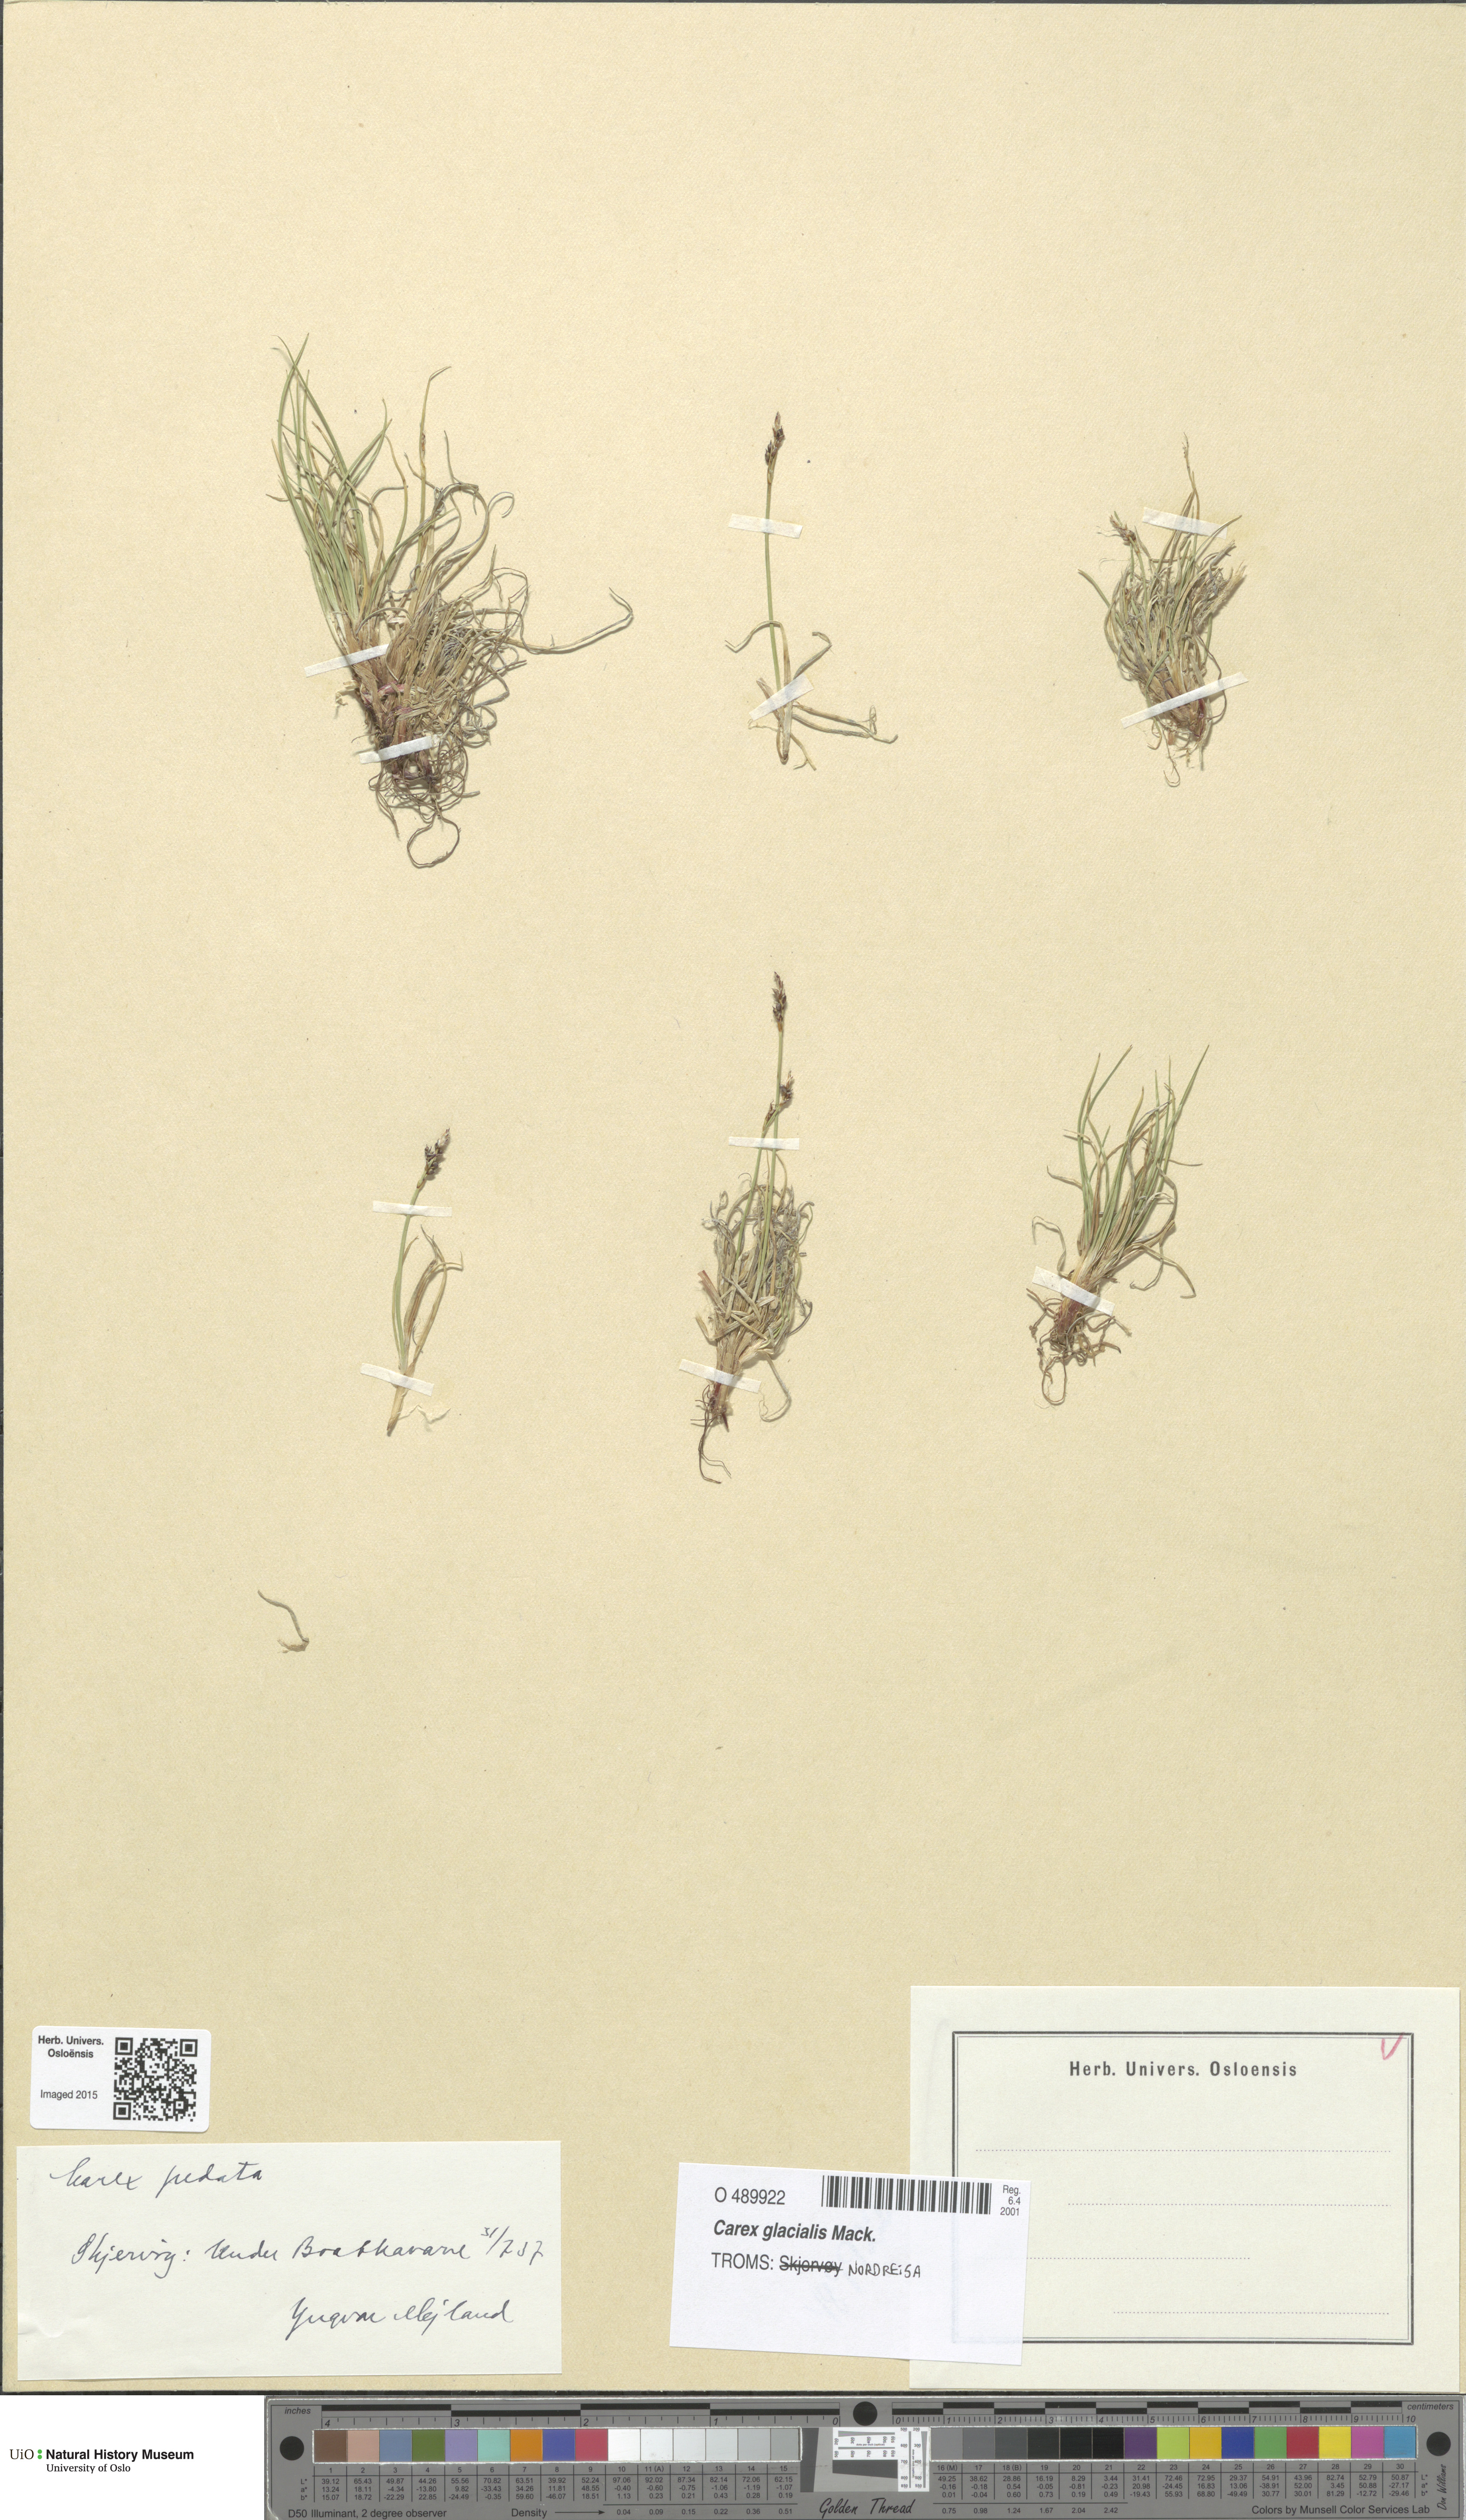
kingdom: Plantae
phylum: Tracheophyta
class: Liliopsida
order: Poales
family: Cyperaceae
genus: Carex
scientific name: Carex glacialis
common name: Newfoundland sedge
